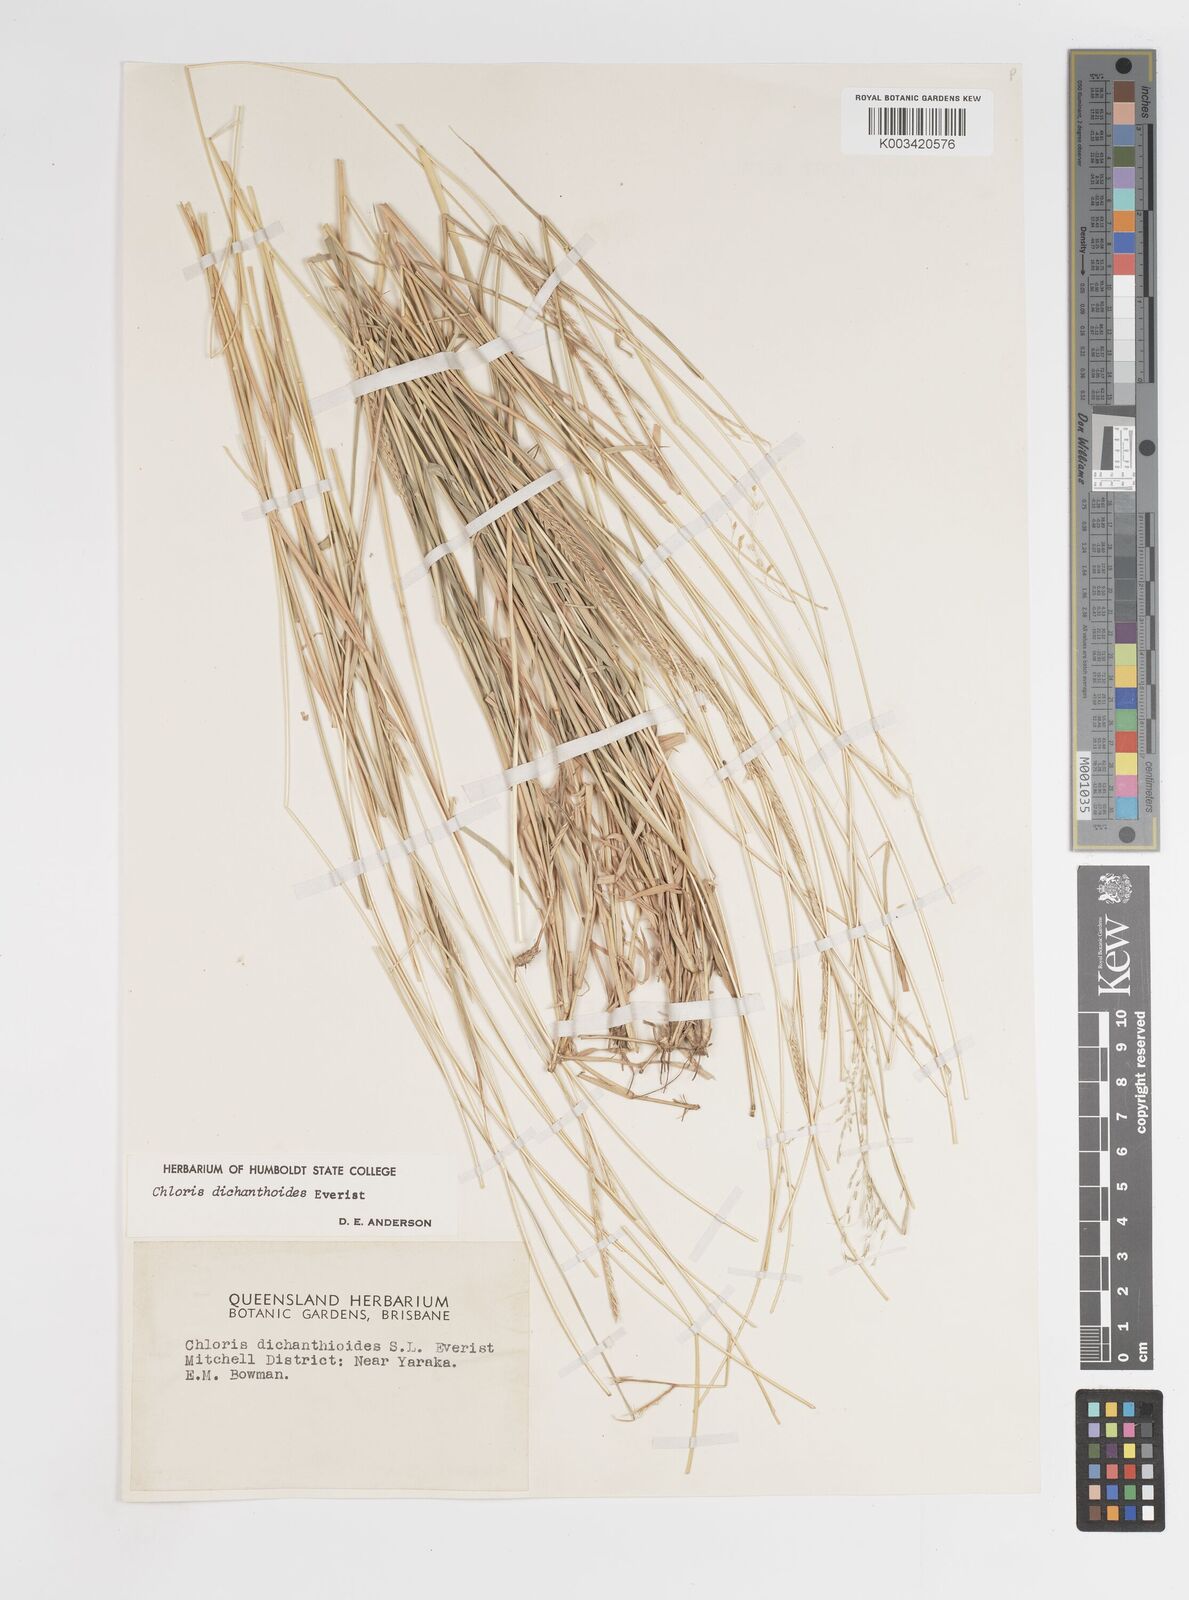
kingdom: Plantae
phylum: Tracheophyta
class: Liliopsida
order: Poales
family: Poaceae
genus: Austrochloris
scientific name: Austrochloris dichanthioides
